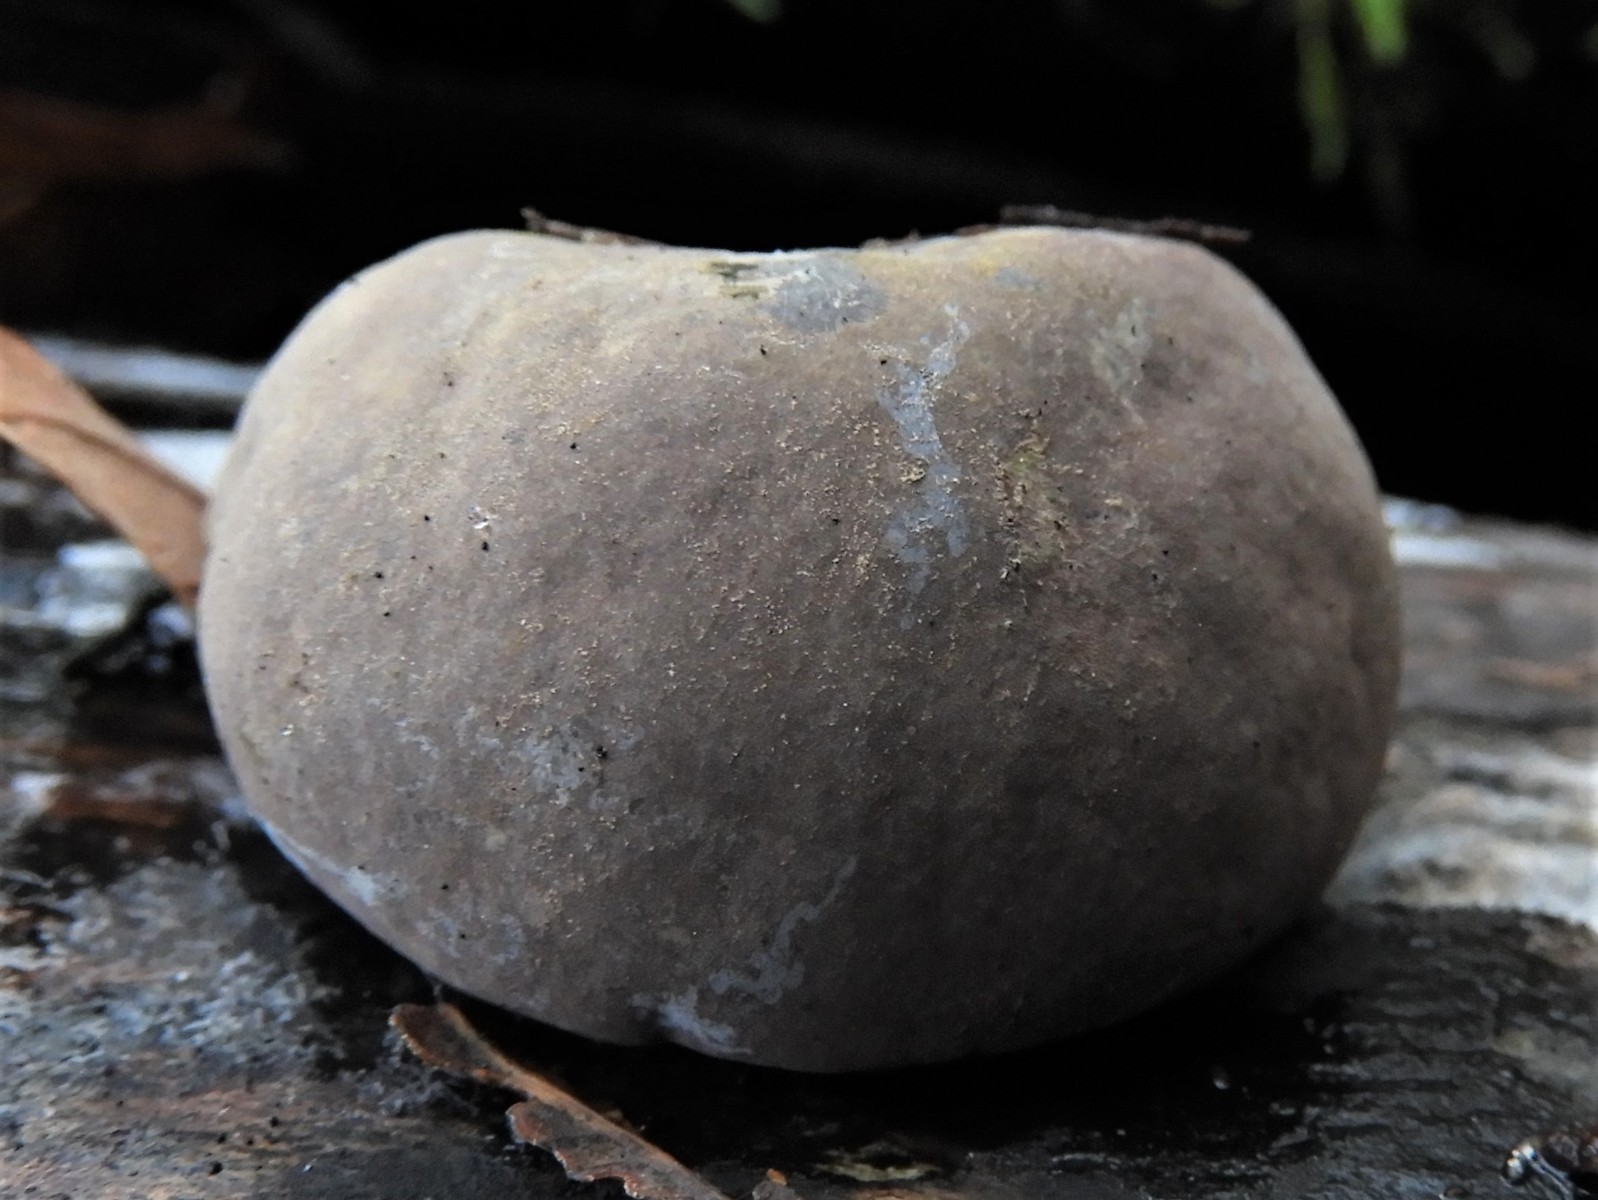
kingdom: Fungi
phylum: Ascomycota
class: Sordariomycetes
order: Xylariales
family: Hypoxylaceae
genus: Daldinia
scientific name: Daldinia concentrica
